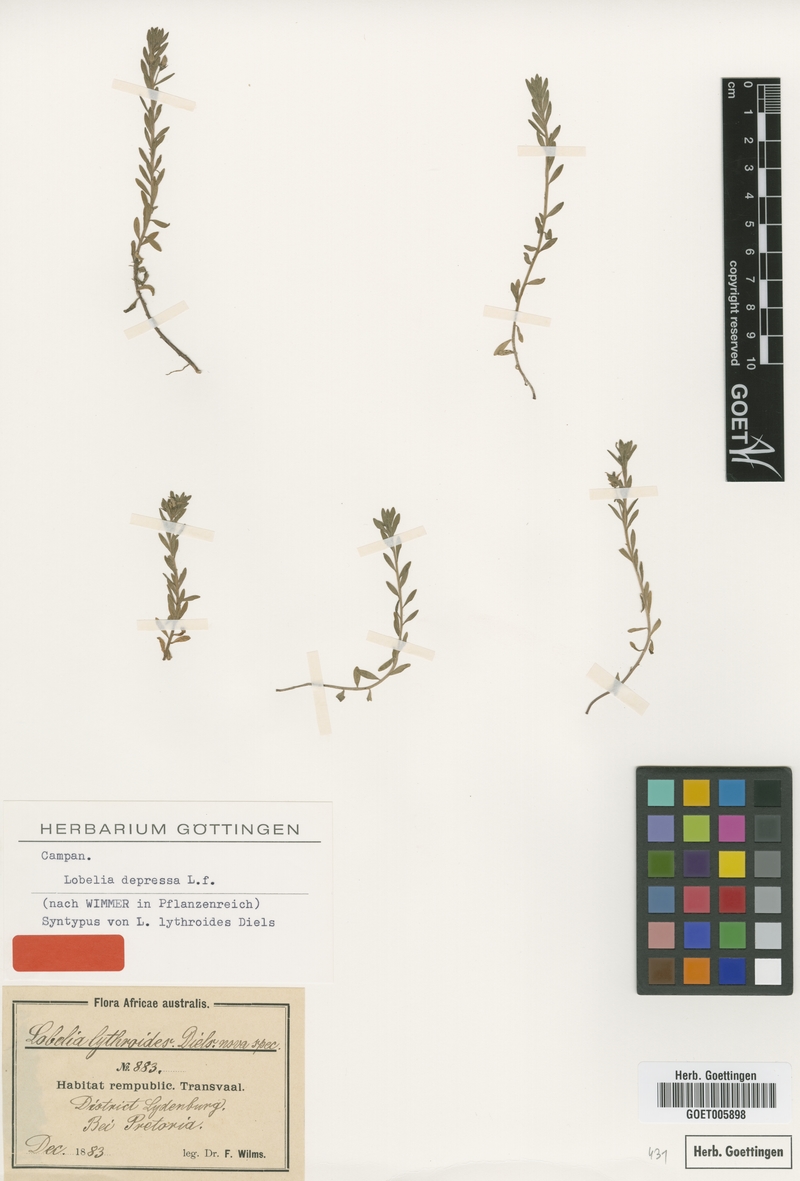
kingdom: Plantae
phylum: Tracheophyta
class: Magnoliopsida
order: Asterales
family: Campanulaceae
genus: Monopsis
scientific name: Monopsis debilis
